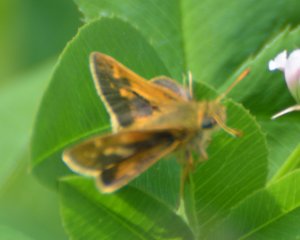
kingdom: Animalia
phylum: Arthropoda
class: Insecta
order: Lepidoptera
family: Hesperiidae
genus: Polites
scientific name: Polites coras
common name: Peck's Skipper
